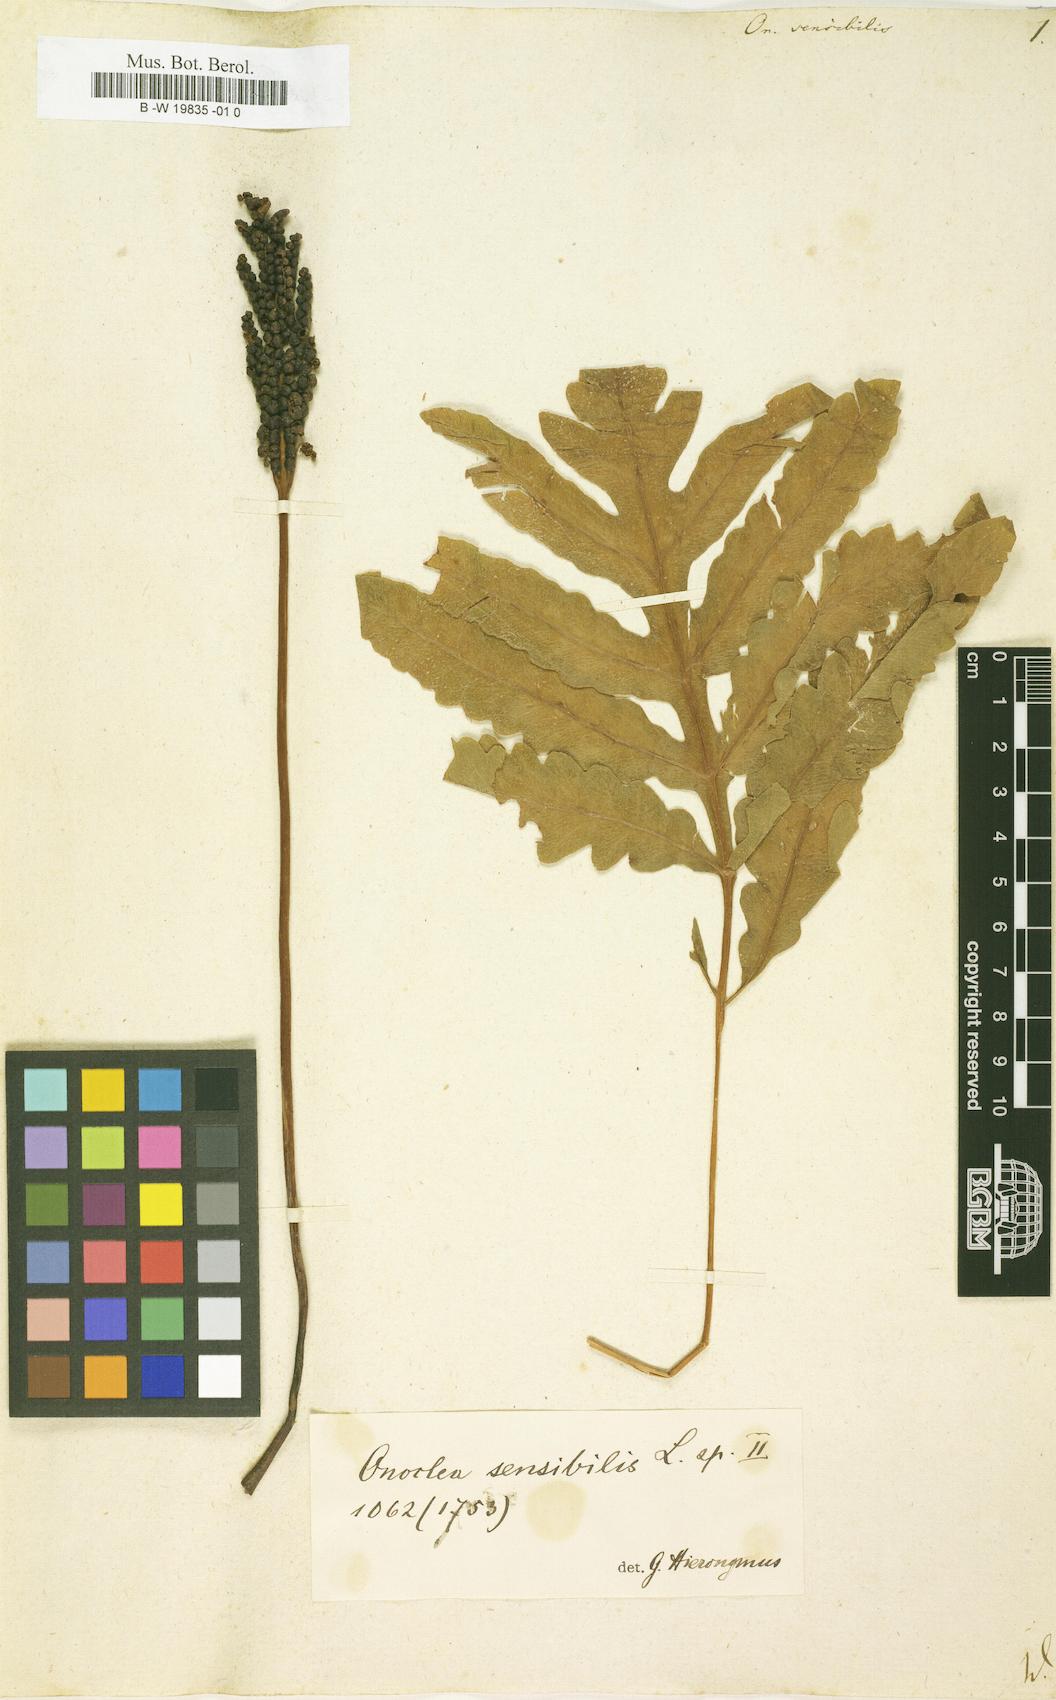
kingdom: Plantae
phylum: Tracheophyta
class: Polypodiopsida
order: Polypodiales
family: Onocleaceae
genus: Onoclea
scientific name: Onoclea sensibilis
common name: Sensitive fern
